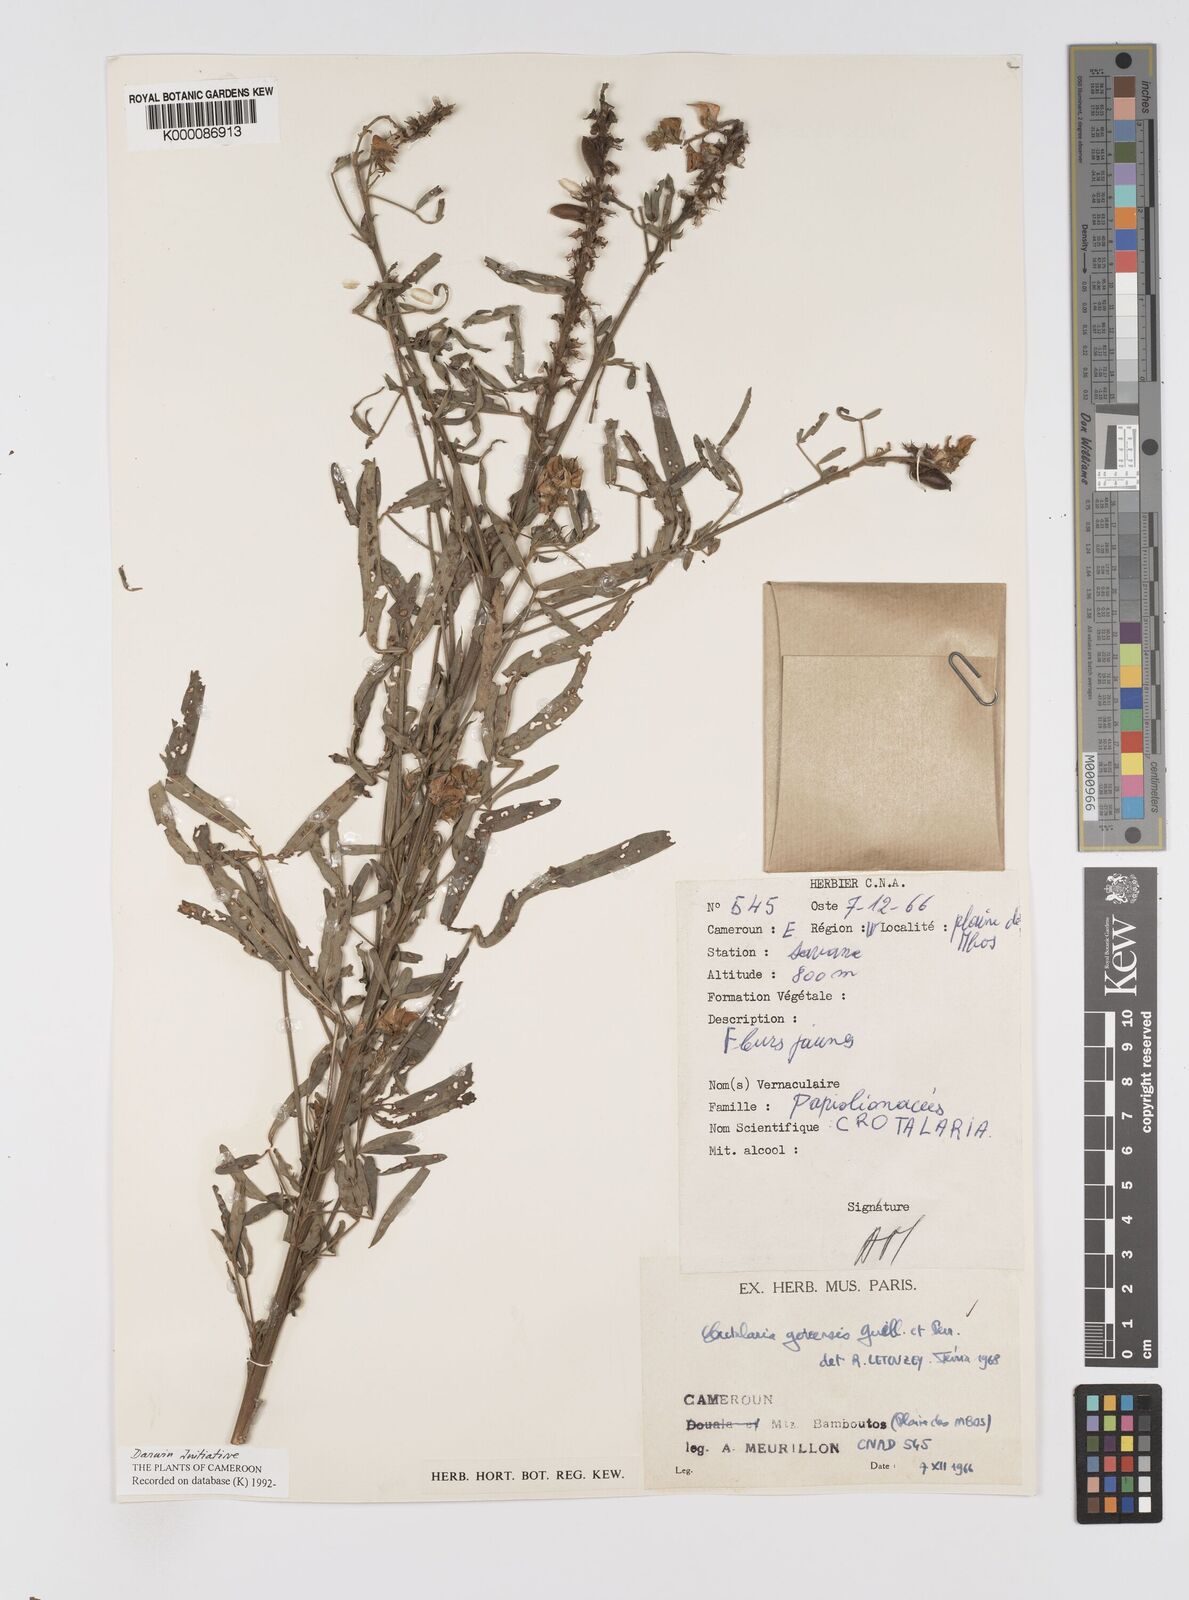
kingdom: Plantae
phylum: Tracheophyta
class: Magnoliopsida
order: Fabales
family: Fabaceae
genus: Crotalaria
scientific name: Crotalaria
